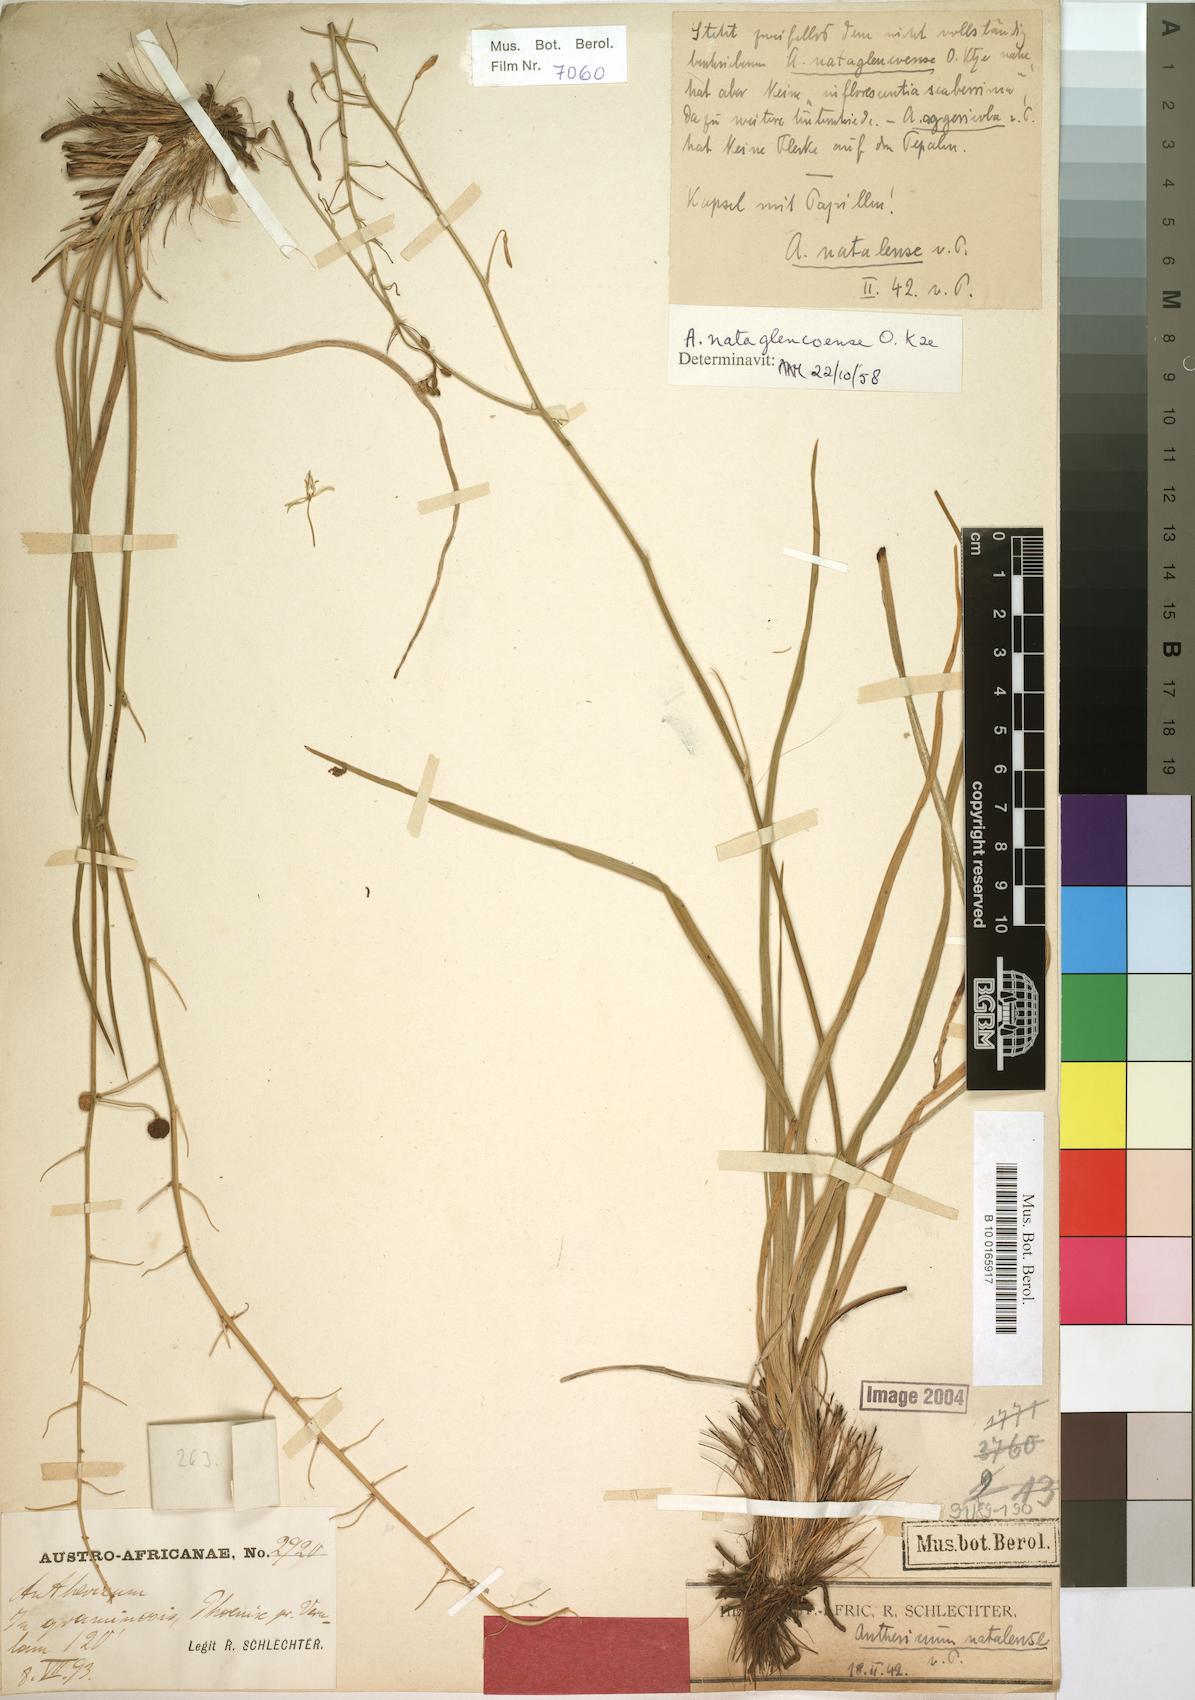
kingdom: Plantae
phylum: Tracheophyta
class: Liliopsida
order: Asparagales
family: Asphodelaceae
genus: Trachyandra
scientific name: Trachyandra asperata
